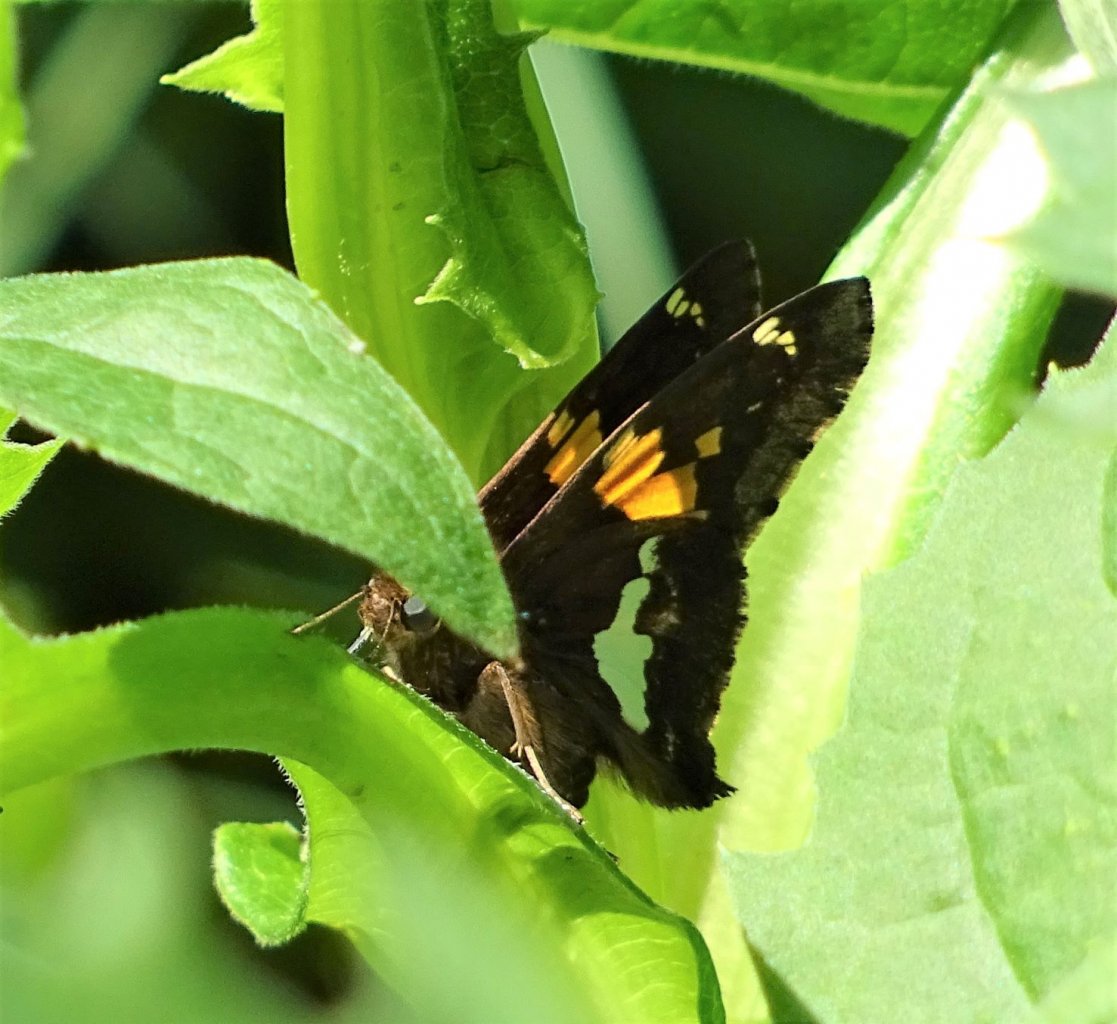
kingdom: Animalia
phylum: Arthropoda
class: Insecta
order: Lepidoptera
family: Hesperiidae
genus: Epargyreus
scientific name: Epargyreus clarus
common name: Silver-spotted Skipper
